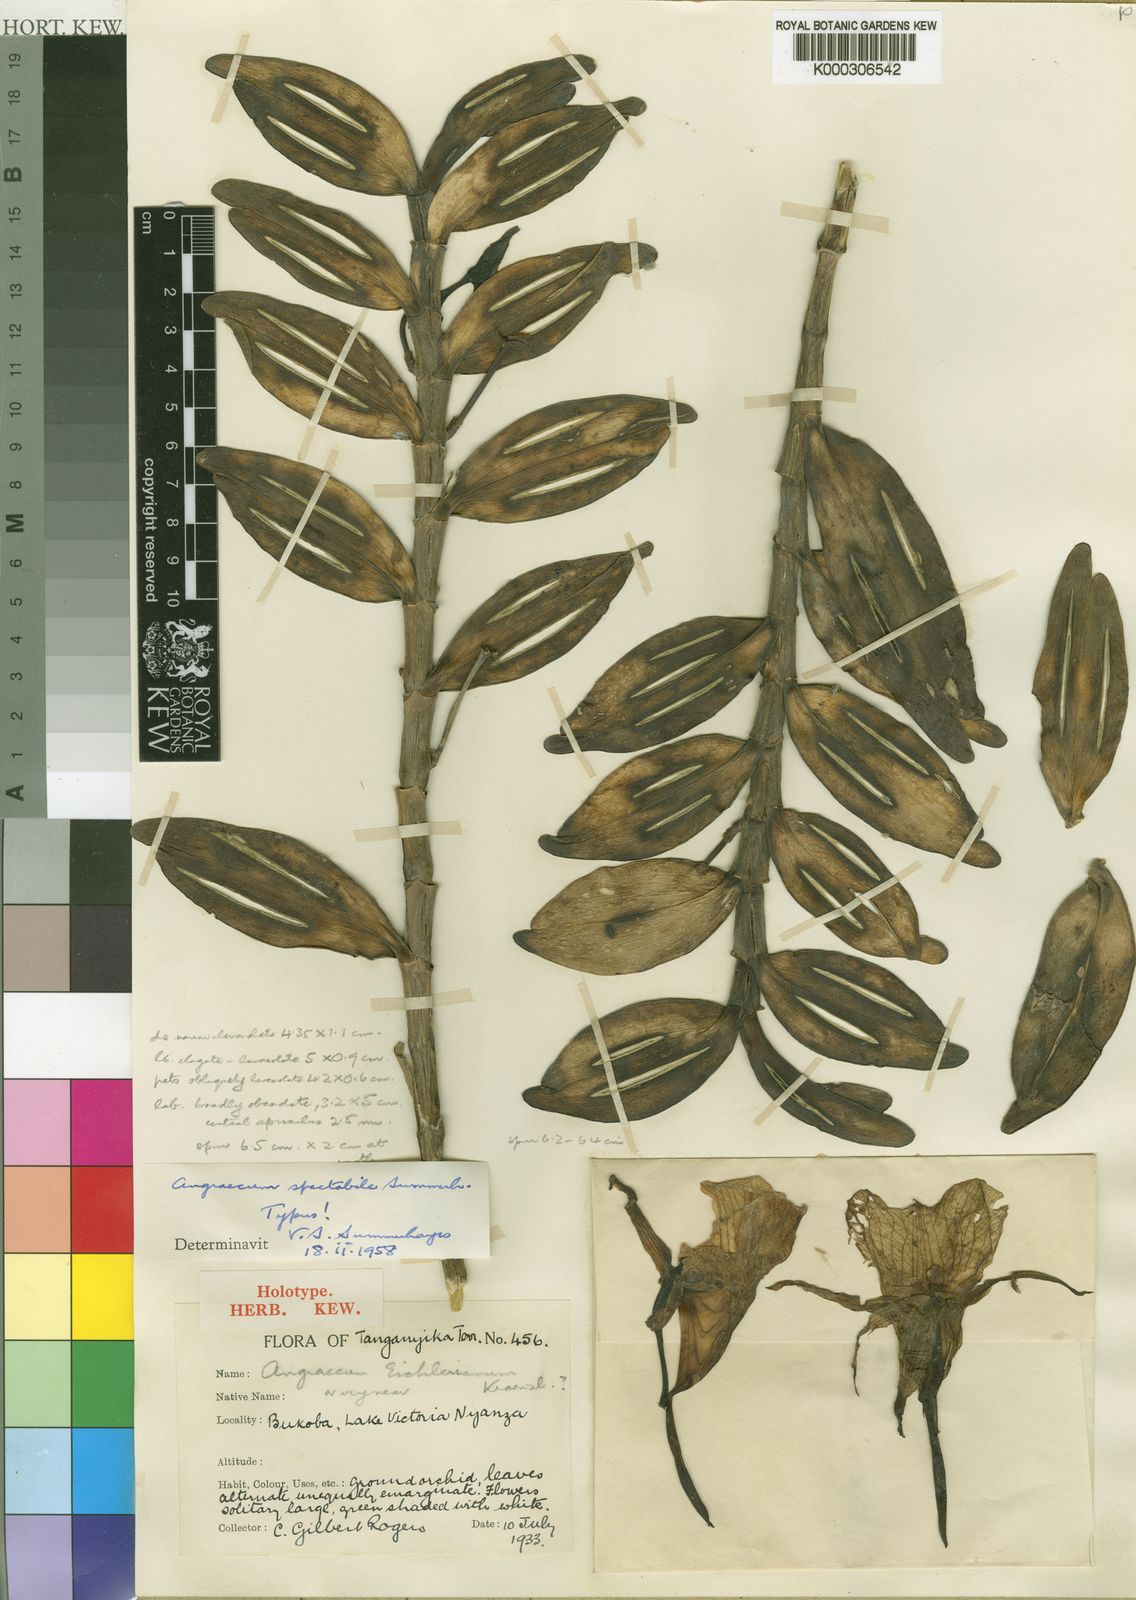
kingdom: Plantae
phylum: Tracheophyta
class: Liliopsida
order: Asparagales
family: Orchidaceae
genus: Angraecum
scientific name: Angraecum spectabile
